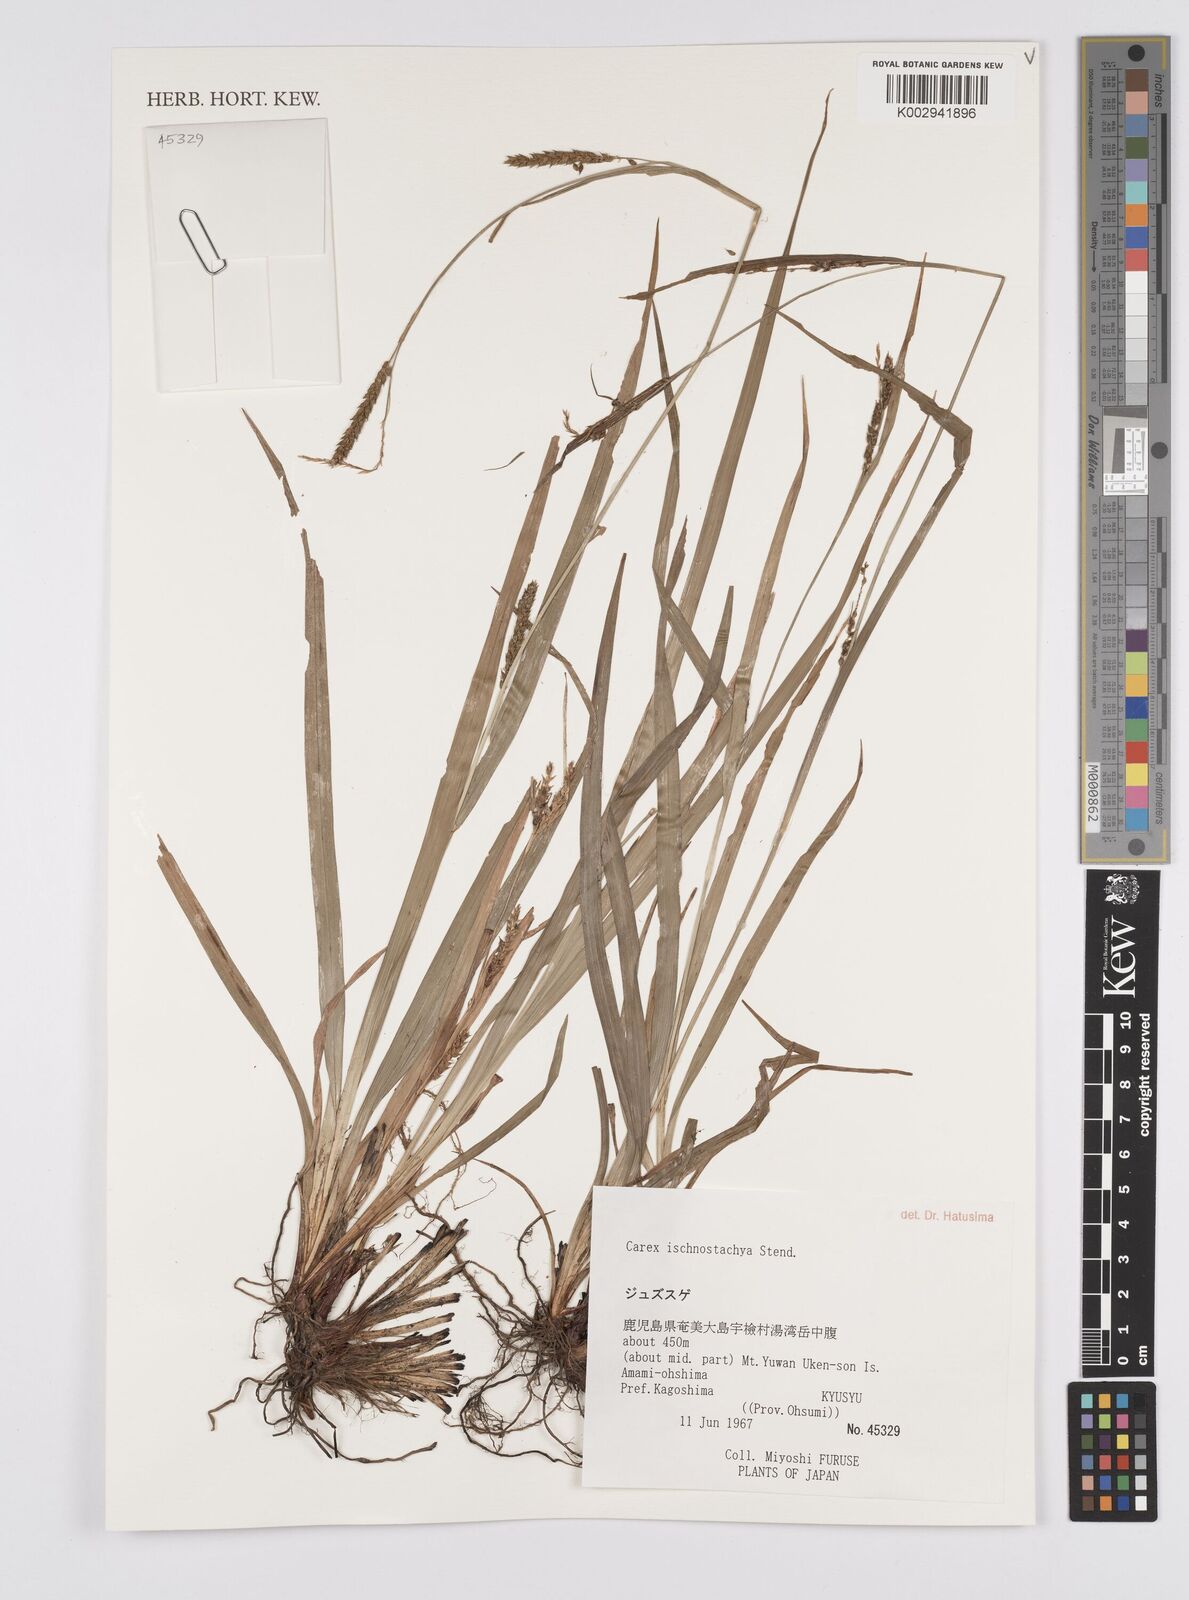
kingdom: Plantae
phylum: Tracheophyta
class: Liliopsida
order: Poales
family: Cyperaceae
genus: Carex
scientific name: Carex ischnostachya
